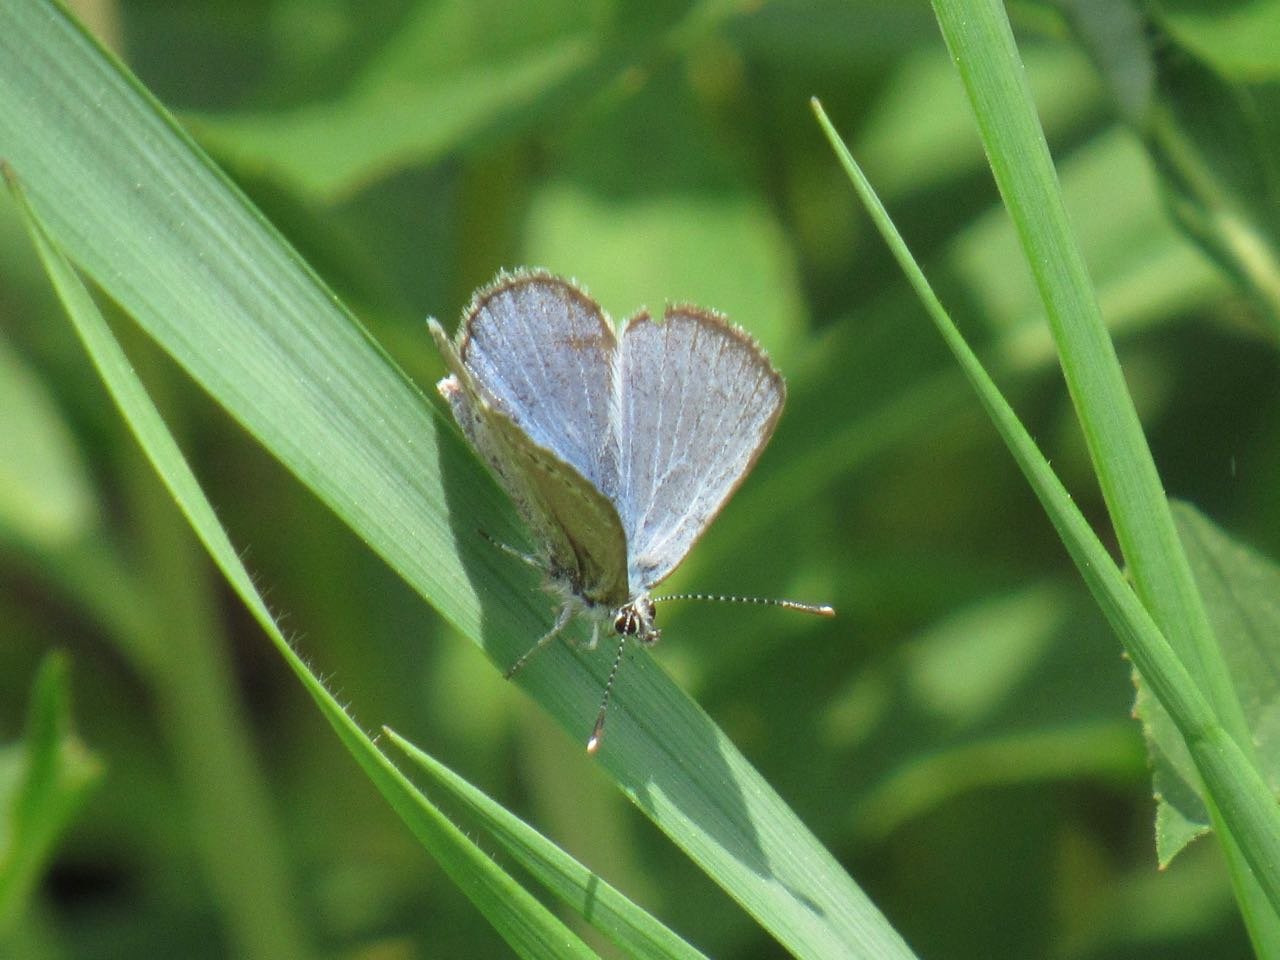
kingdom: Animalia
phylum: Arthropoda
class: Insecta
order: Lepidoptera
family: Lycaenidae
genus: Glaucopsyche
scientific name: Glaucopsyche lygdamus
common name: Silvery Blue
